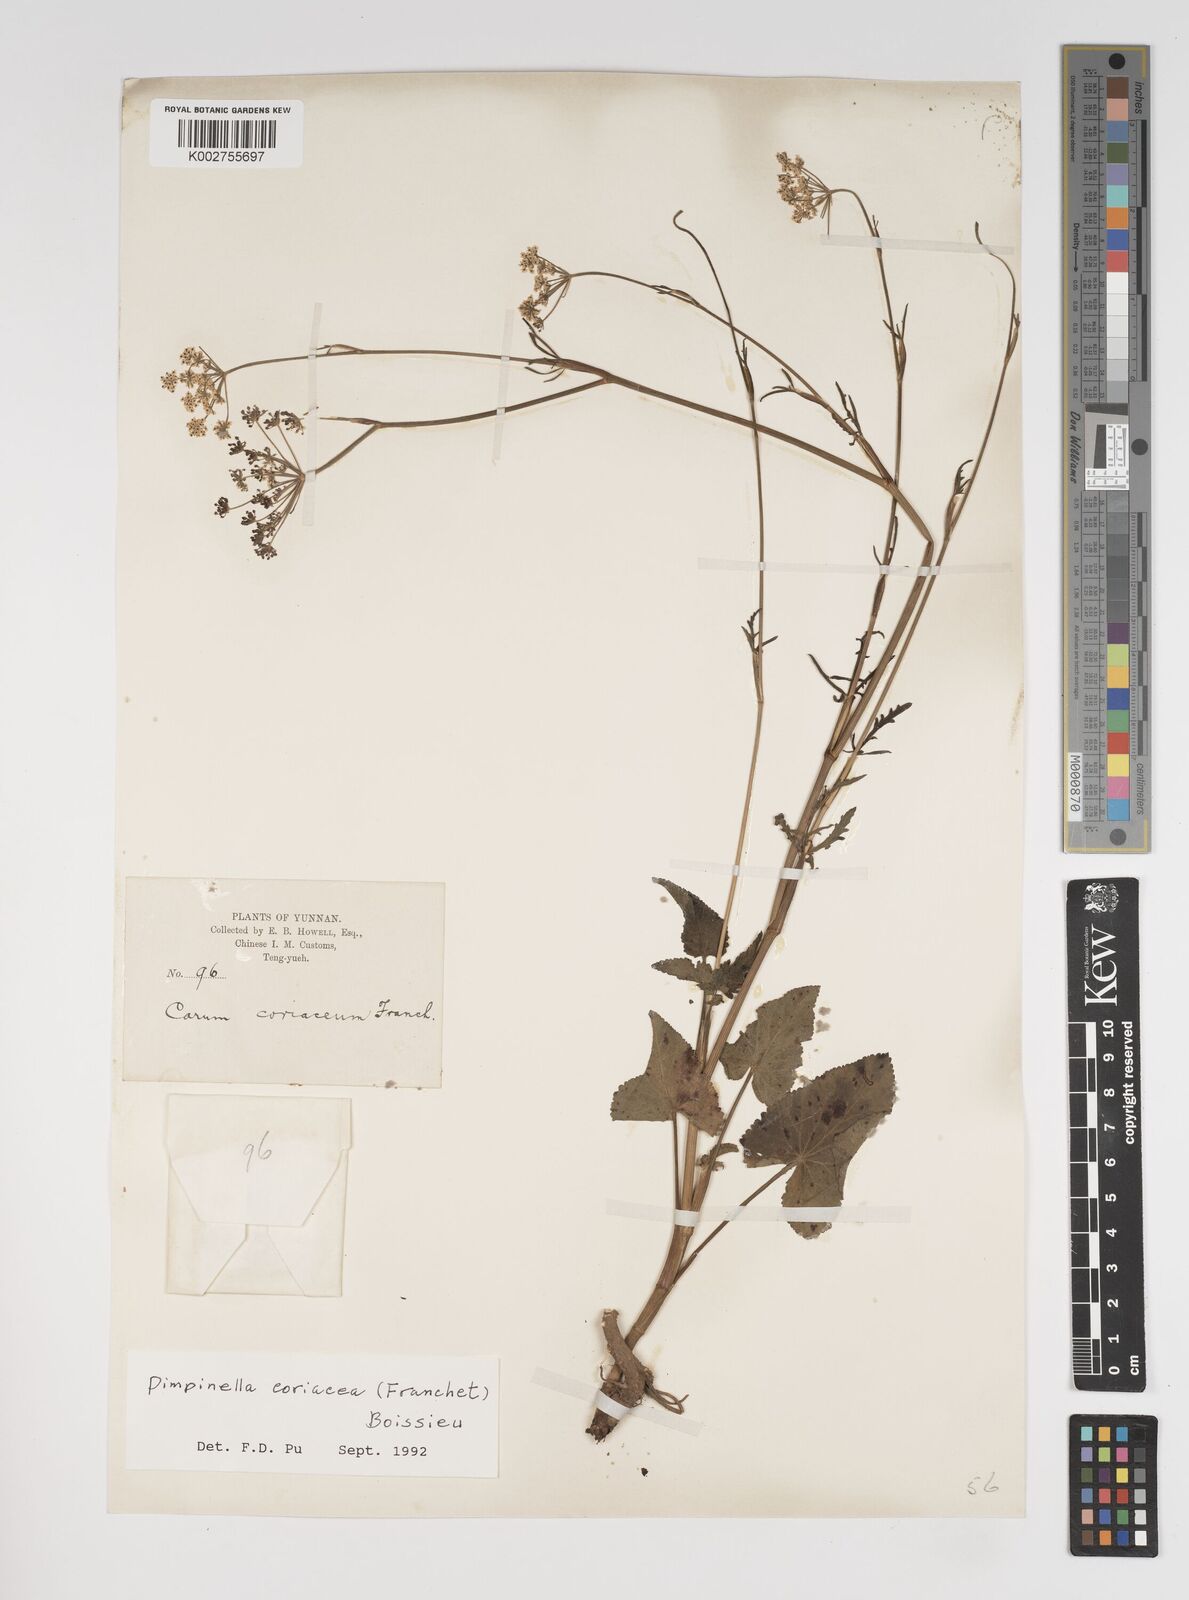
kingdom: Plantae
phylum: Tracheophyta
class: Magnoliopsida
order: Apiales
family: Apiaceae
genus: Pimpinella
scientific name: Pimpinella coriacea
